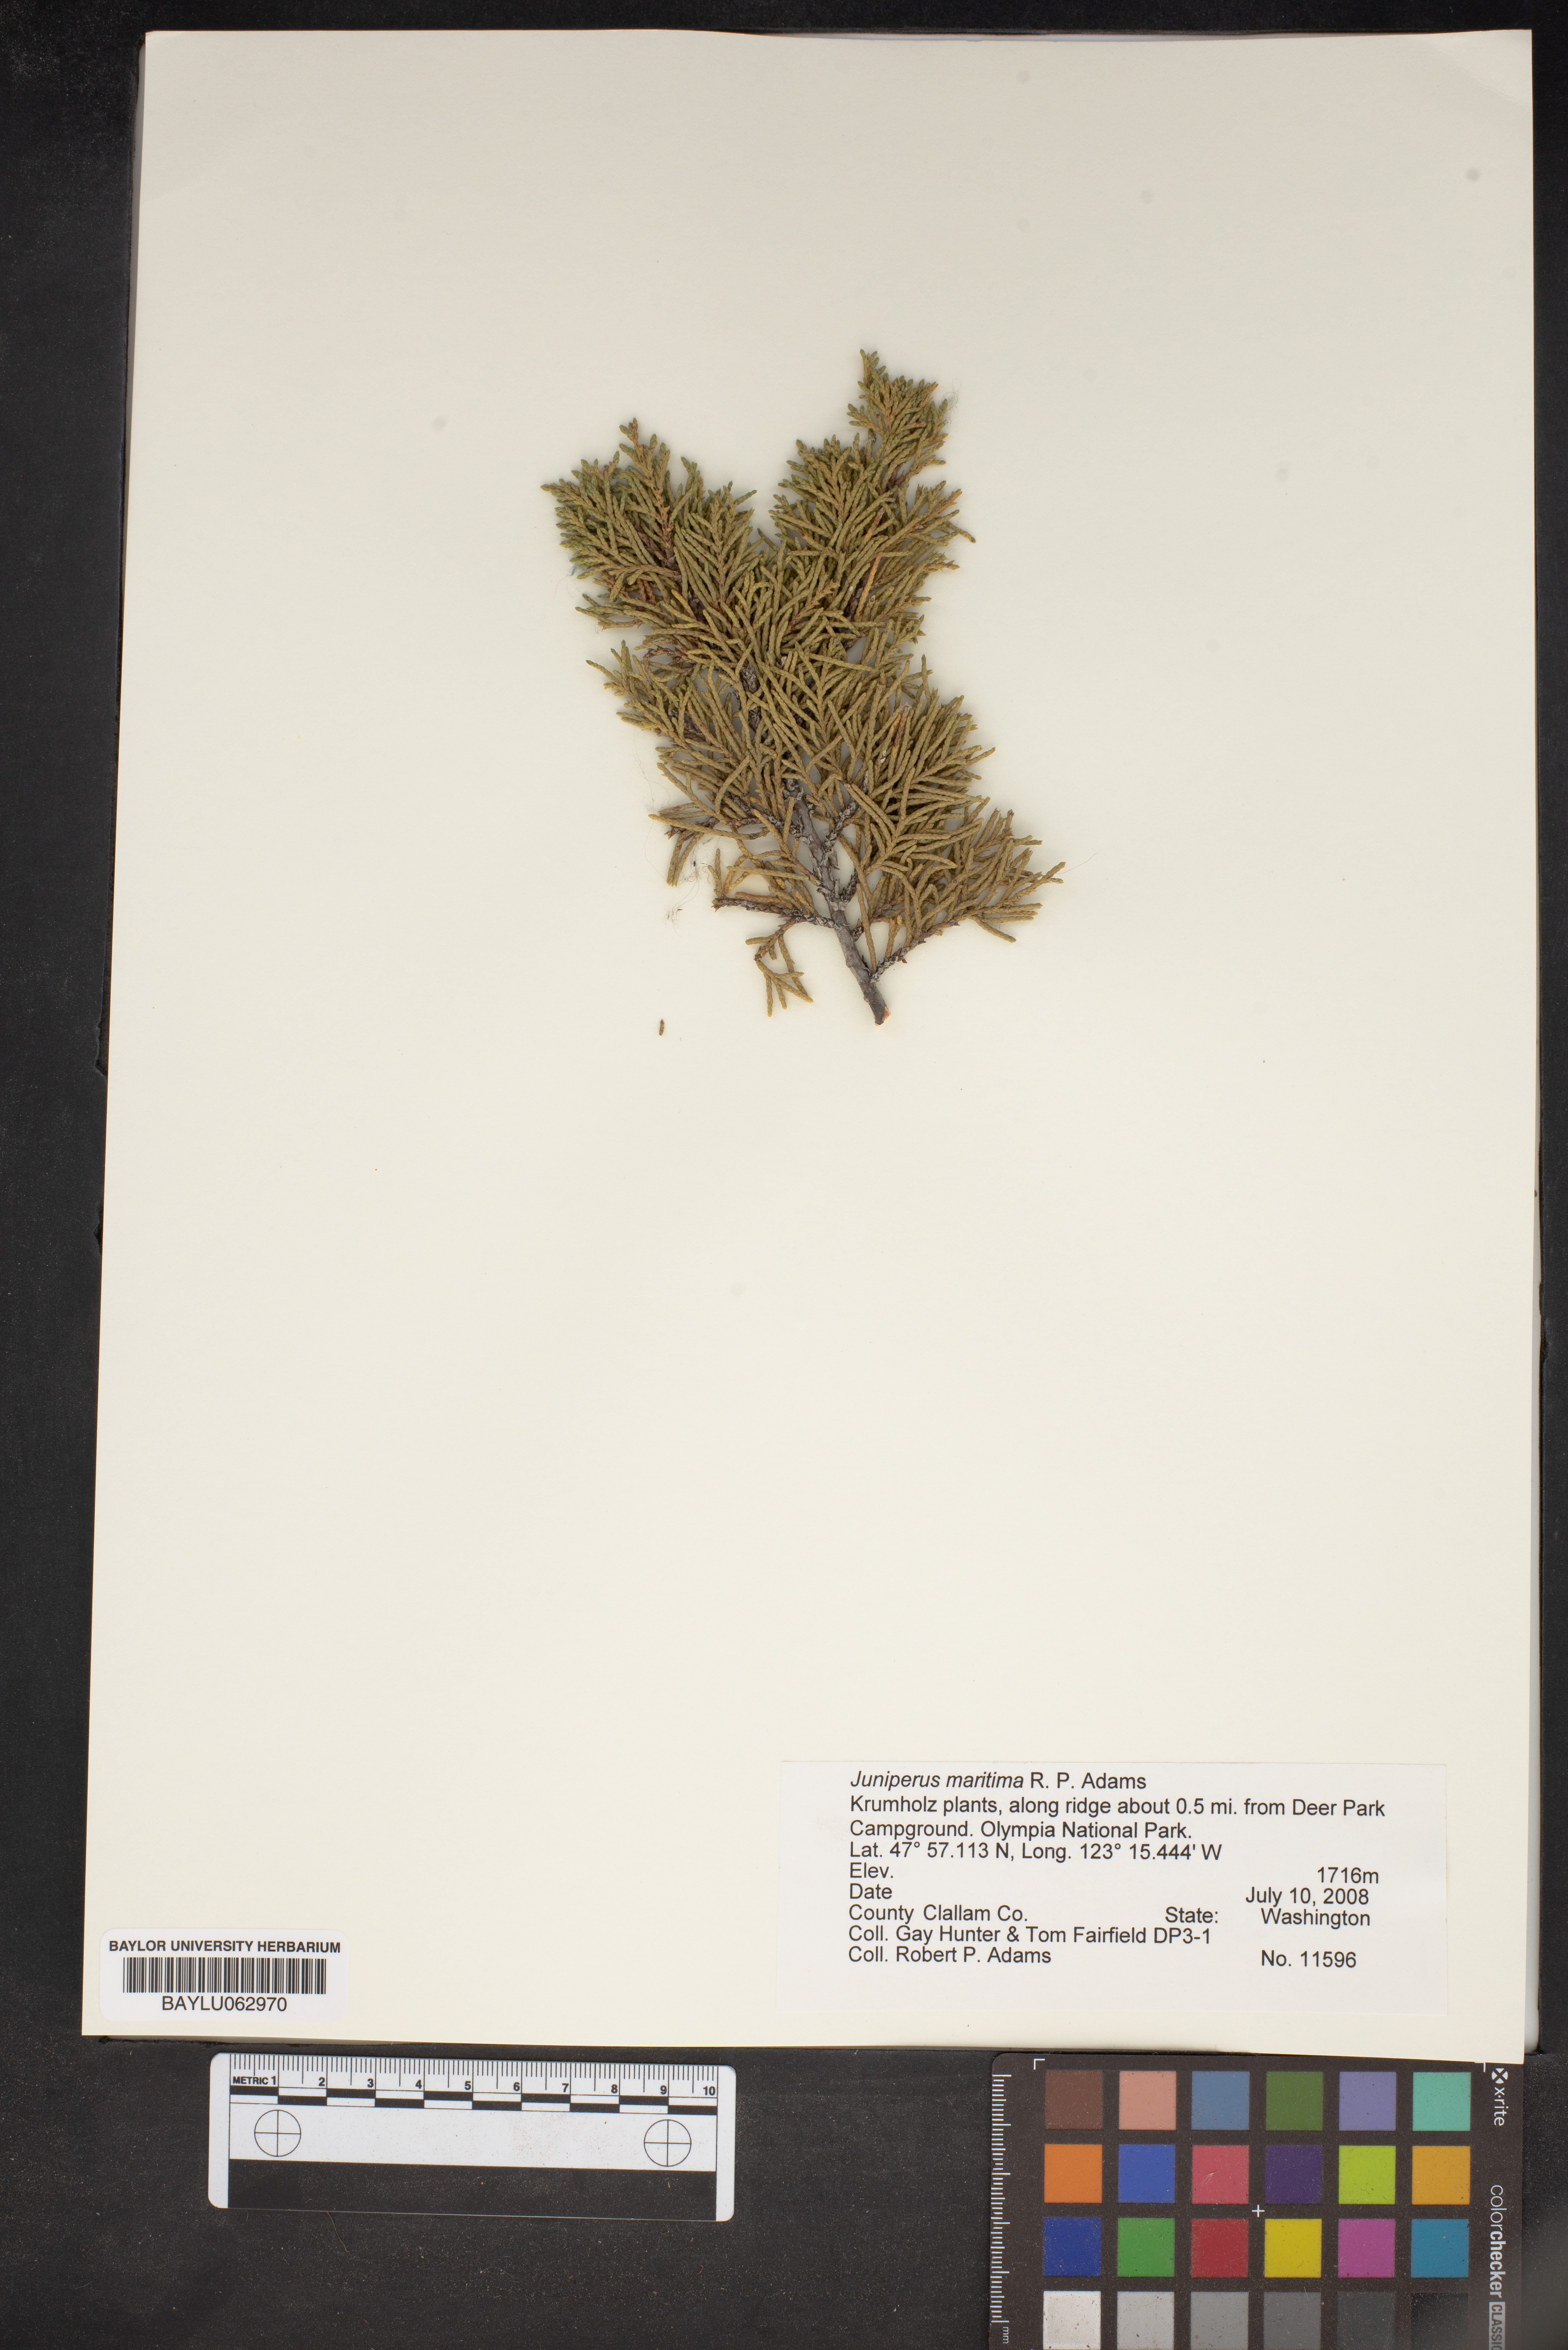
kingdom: Plantae
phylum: Tracheophyta
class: Pinopsida
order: Pinales
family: Cupressaceae
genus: Juniperus
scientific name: Juniperus scopulorum
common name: Rocky mountain juniper
